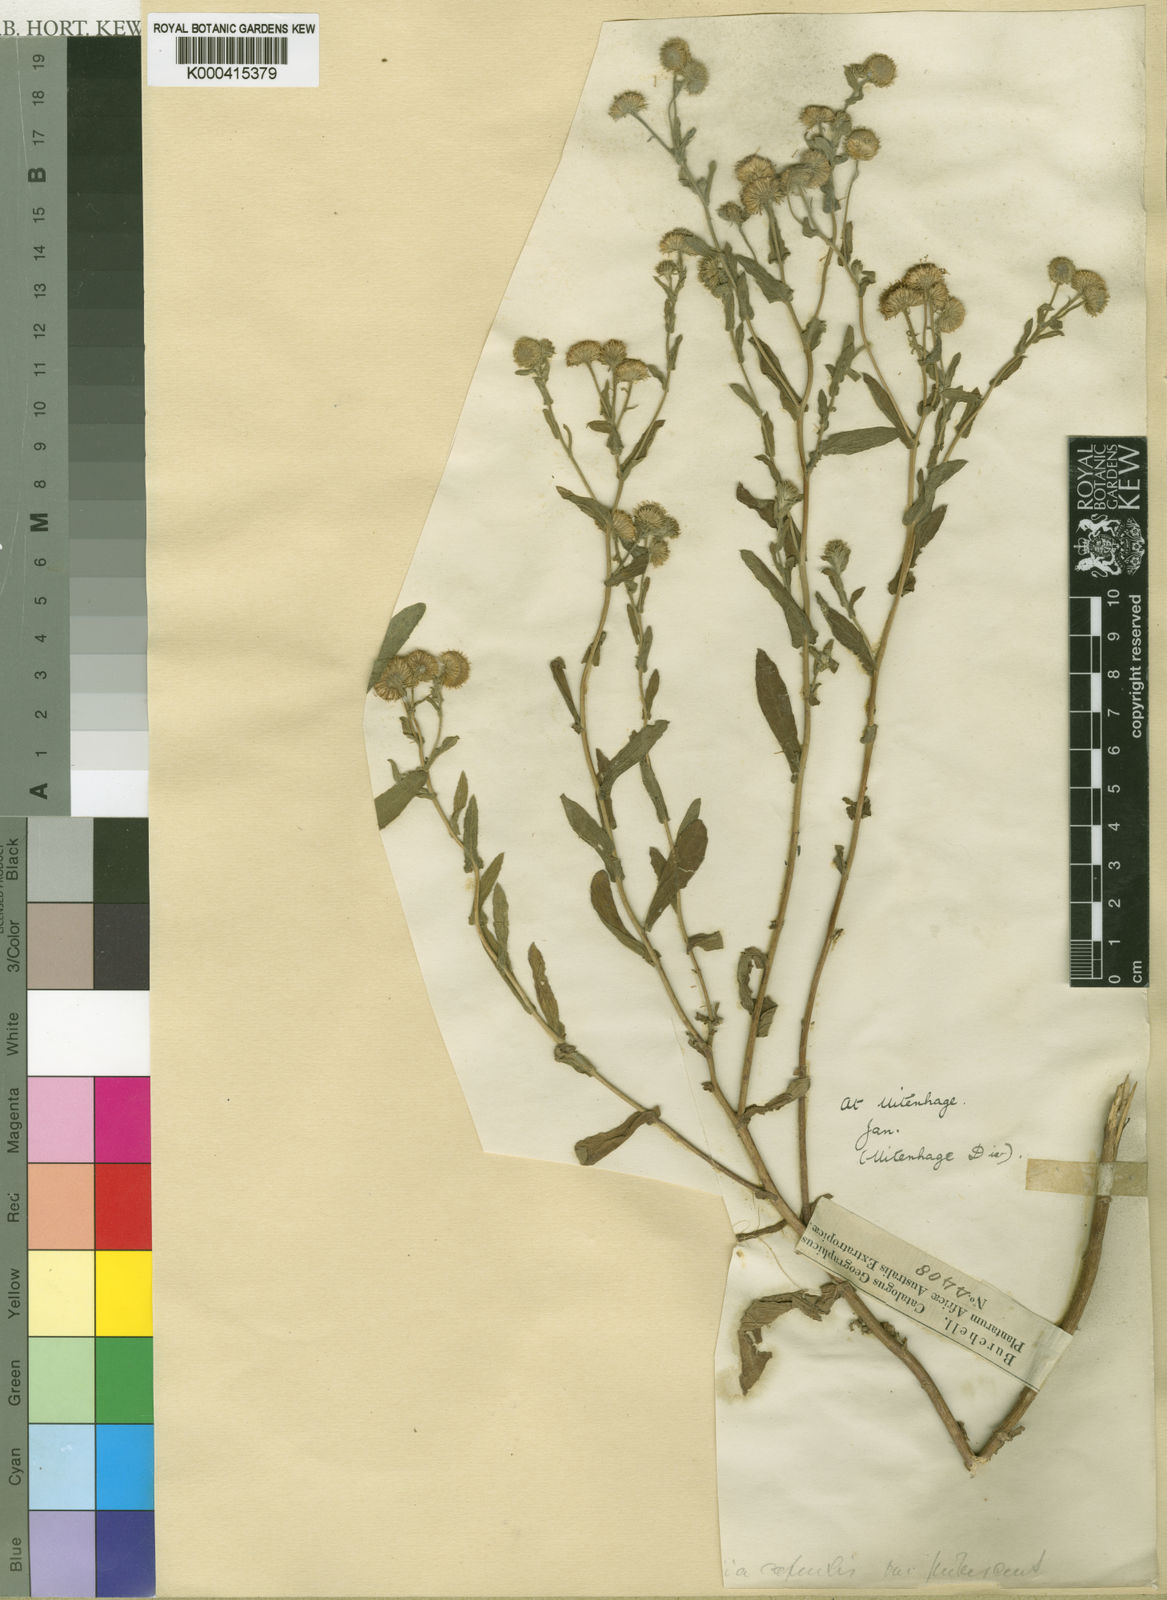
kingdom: Plantae
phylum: Tracheophyta
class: Magnoliopsida
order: Asterales
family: Asteraceae
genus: Pulicaria
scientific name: Pulicaria scabra
